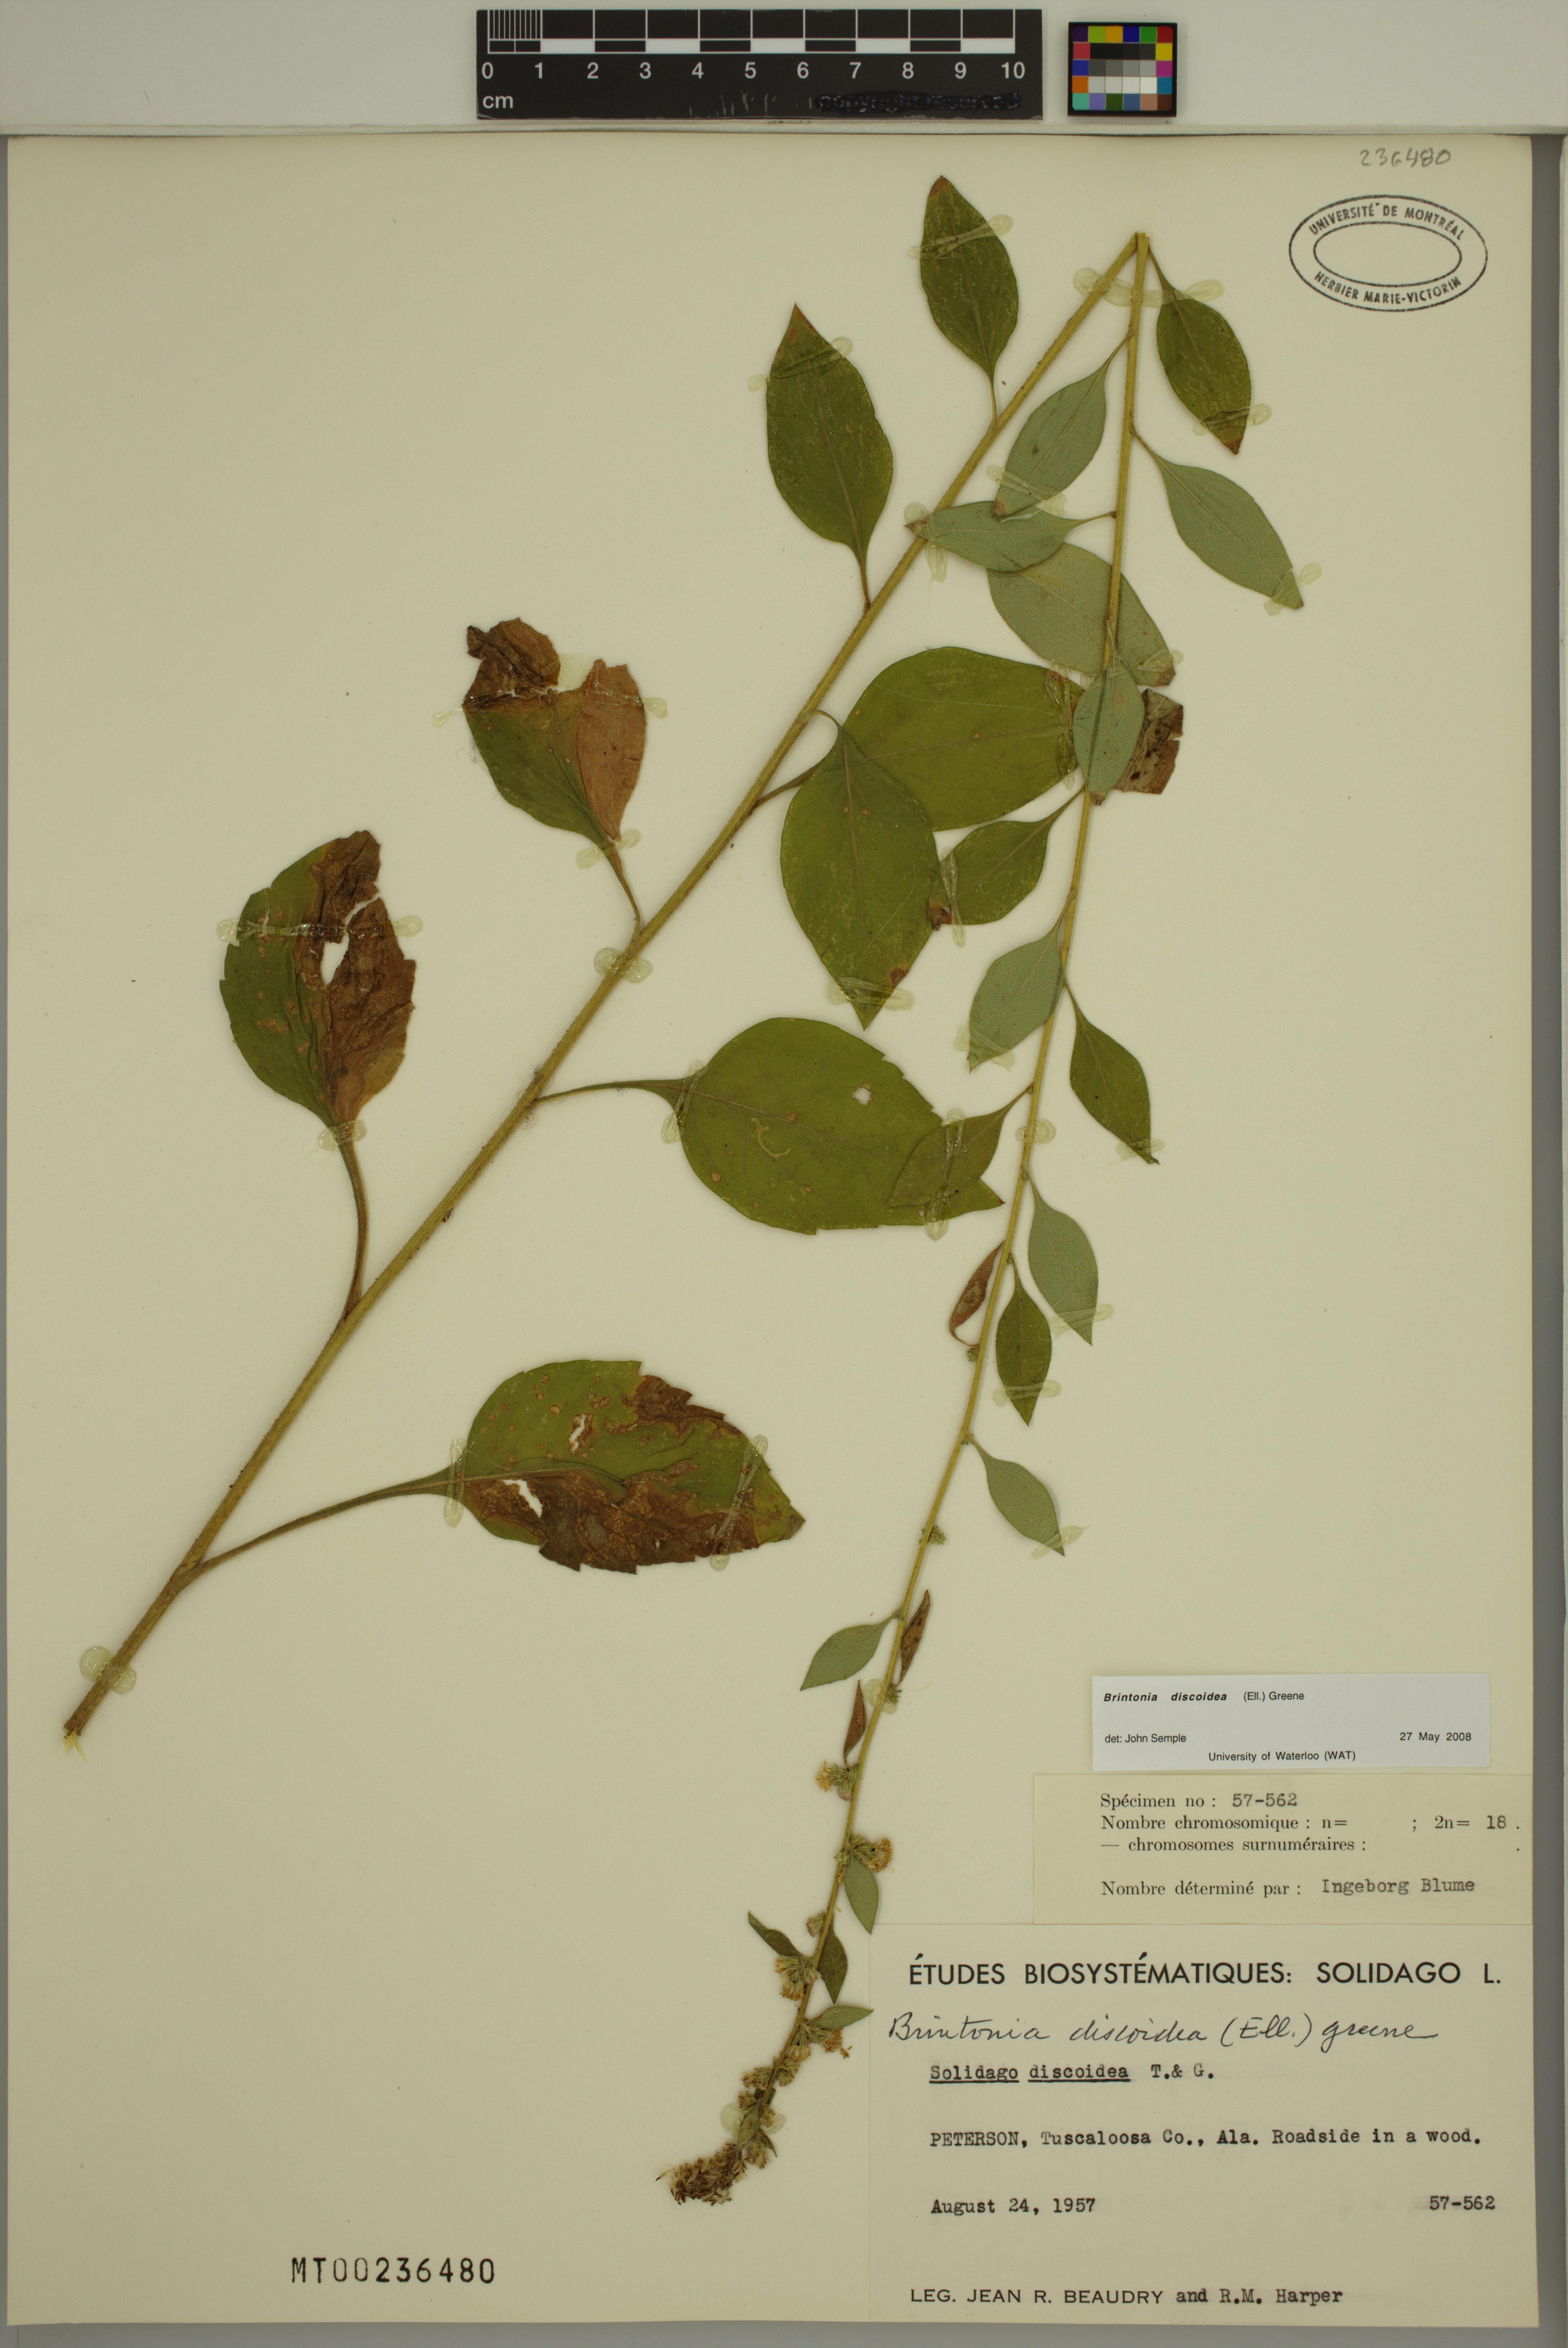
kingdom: Plantae
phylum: Tracheophyta
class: Magnoliopsida
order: Asterales
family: Asteraceae
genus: Solidago
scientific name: Solidago discoidea
